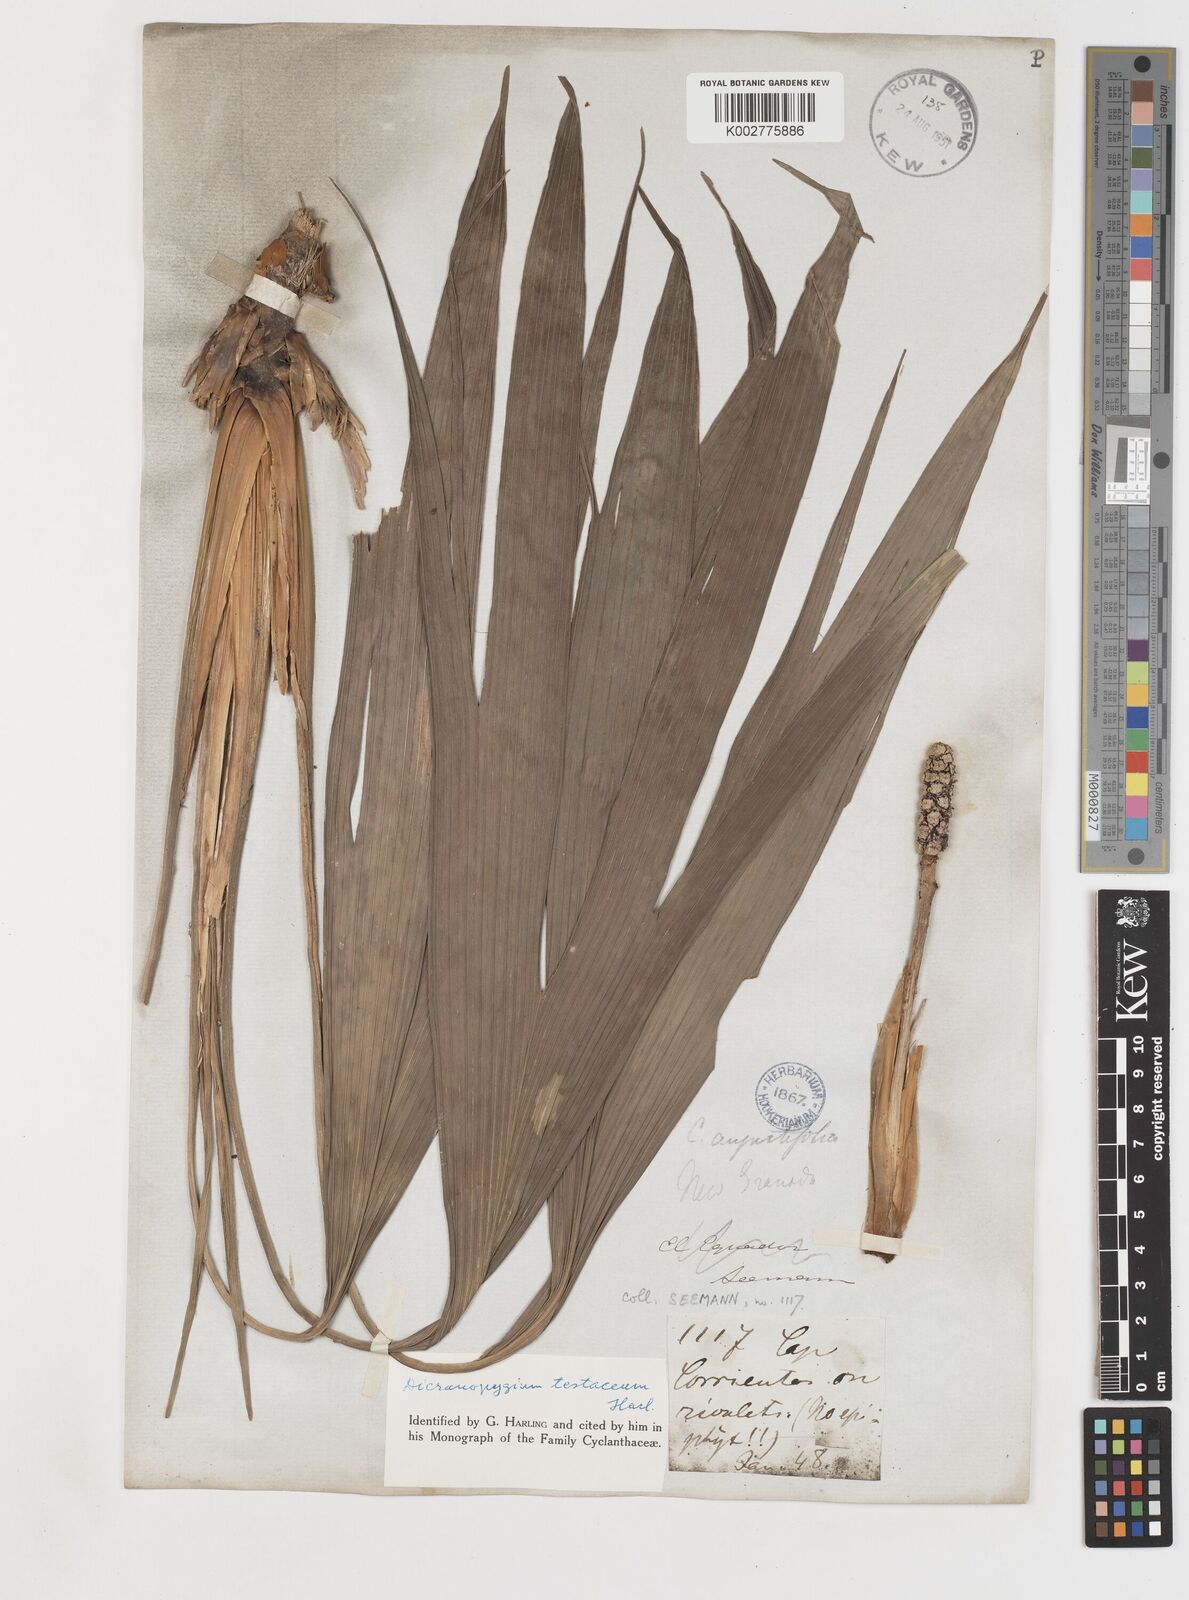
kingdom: Plantae
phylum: Tracheophyta
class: Liliopsida
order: Pandanales
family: Cyclanthaceae
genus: Dicranopygium
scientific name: Dicranopygium testaceum
